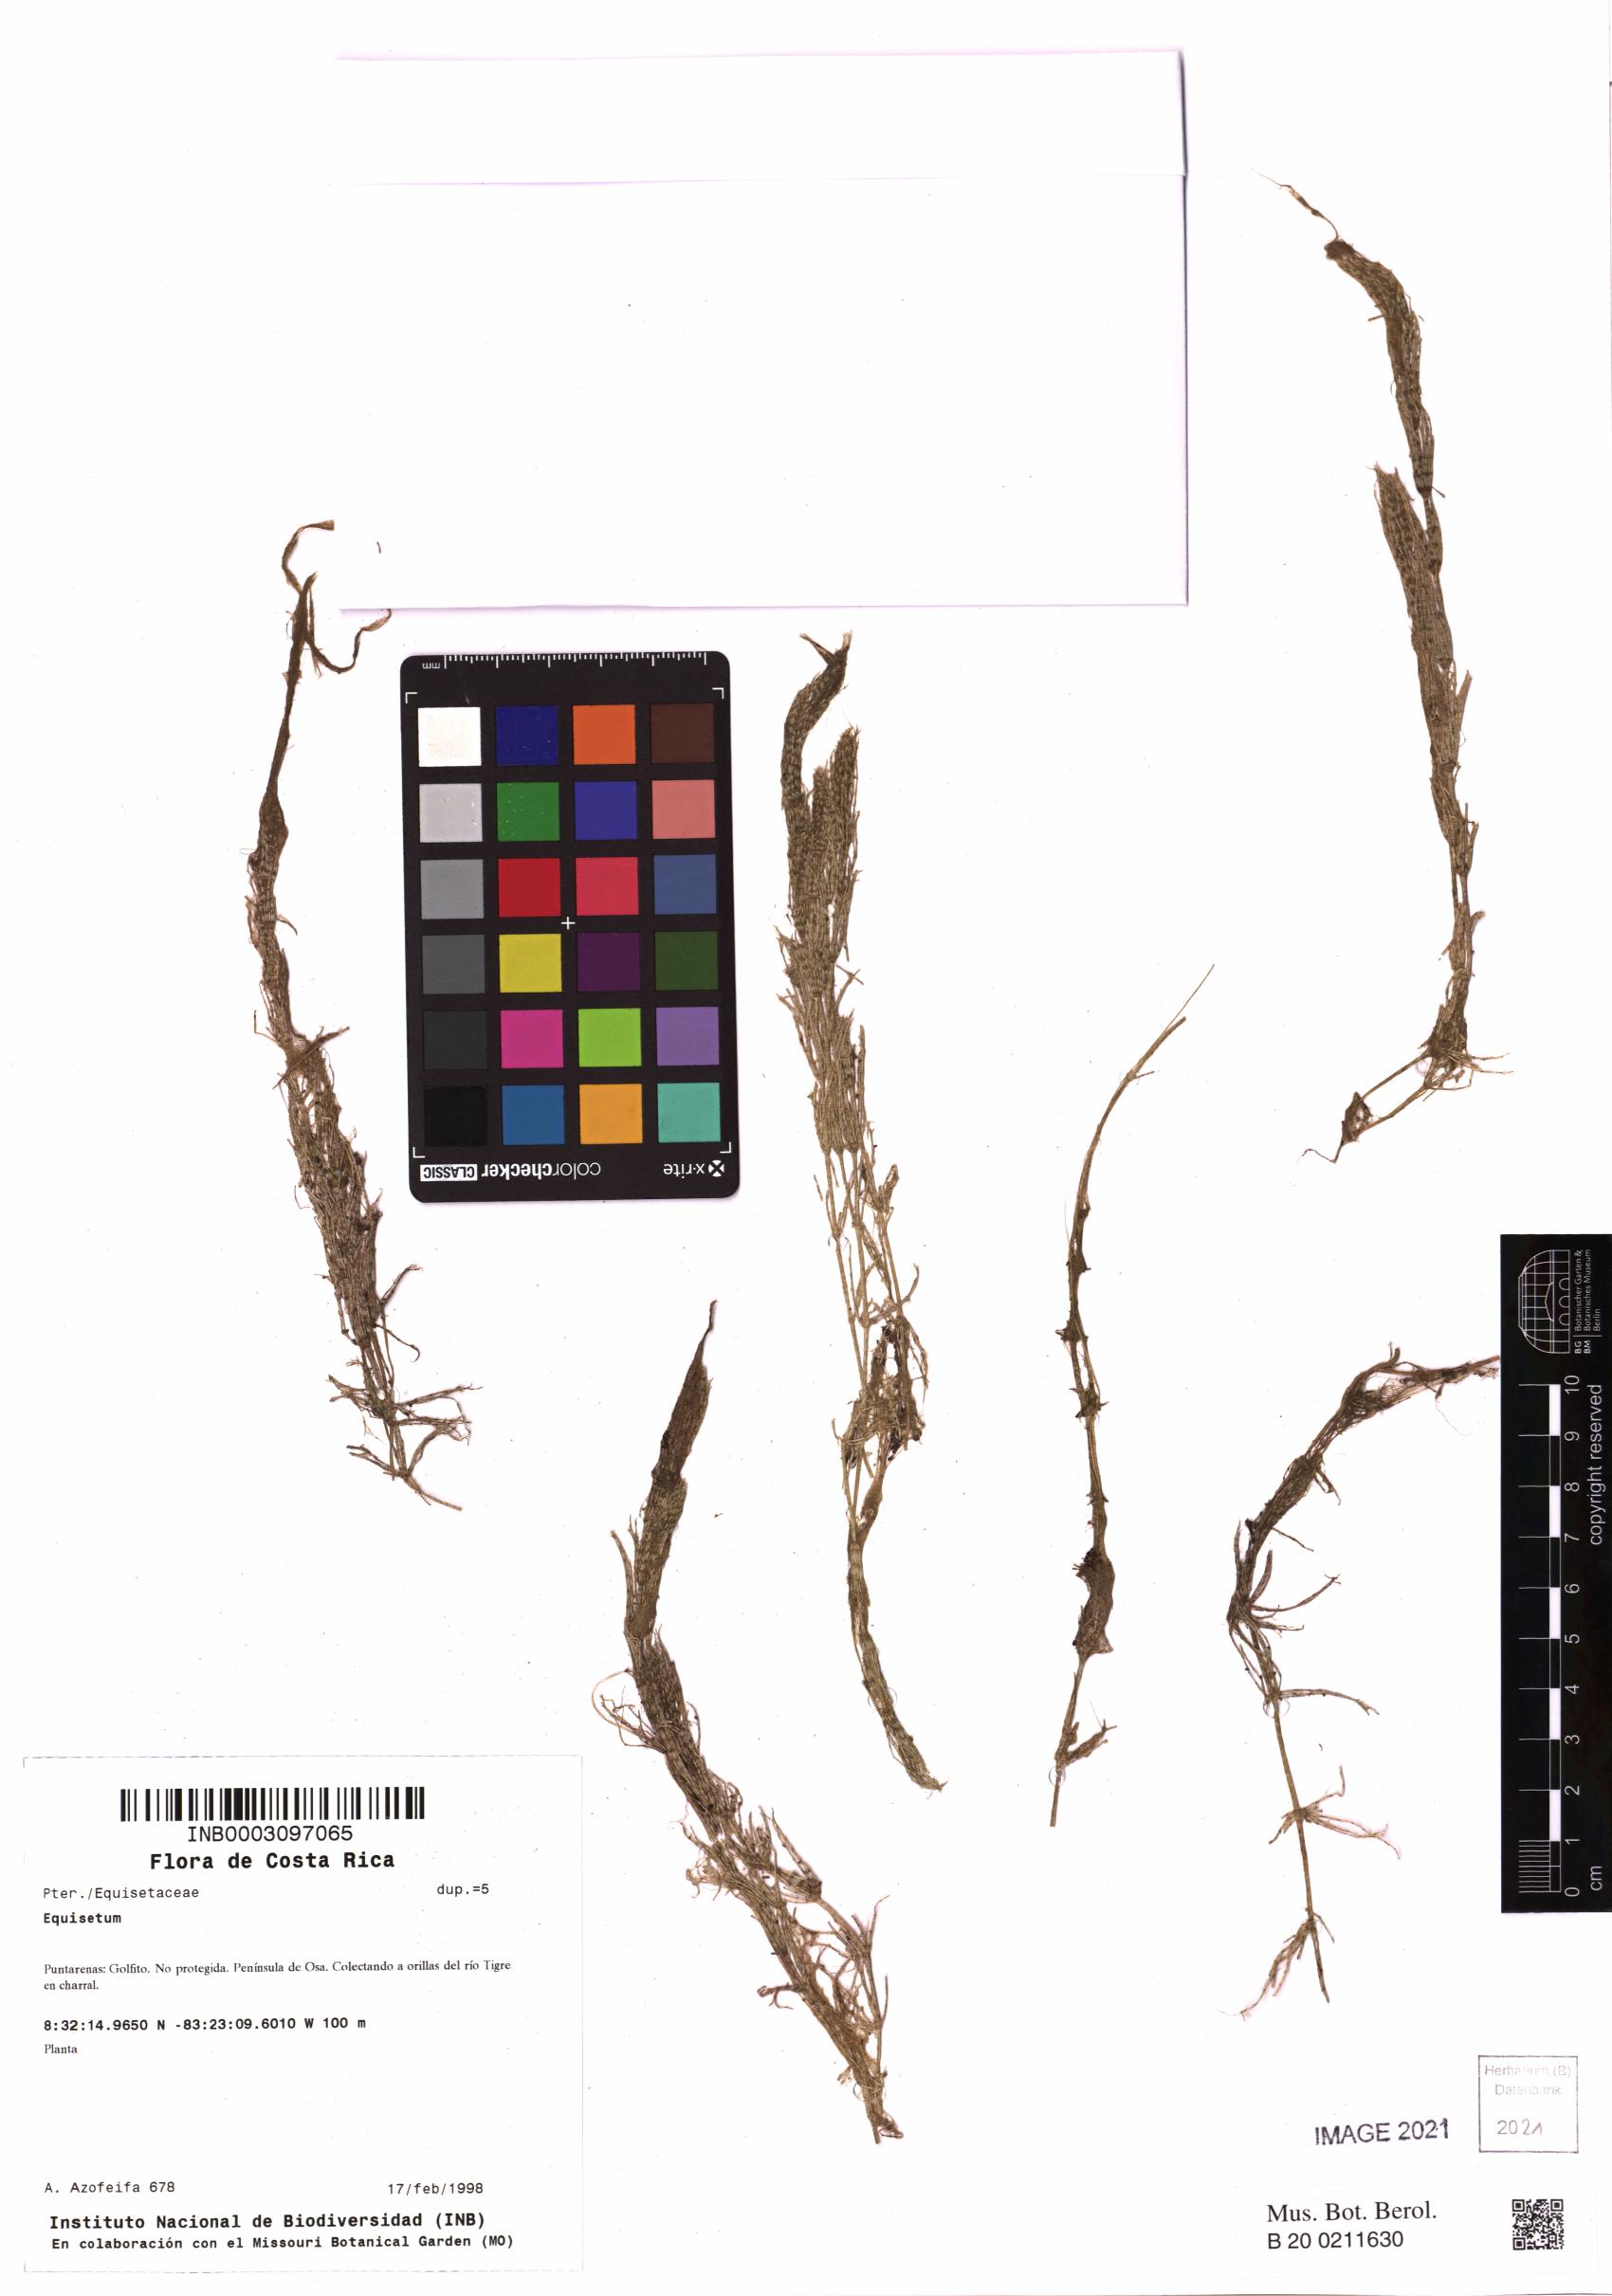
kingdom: Plantae
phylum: Tracheophyta
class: Polypodiopsida
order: Equisetales
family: Equisetaceae
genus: Equisetum
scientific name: Equisetum
